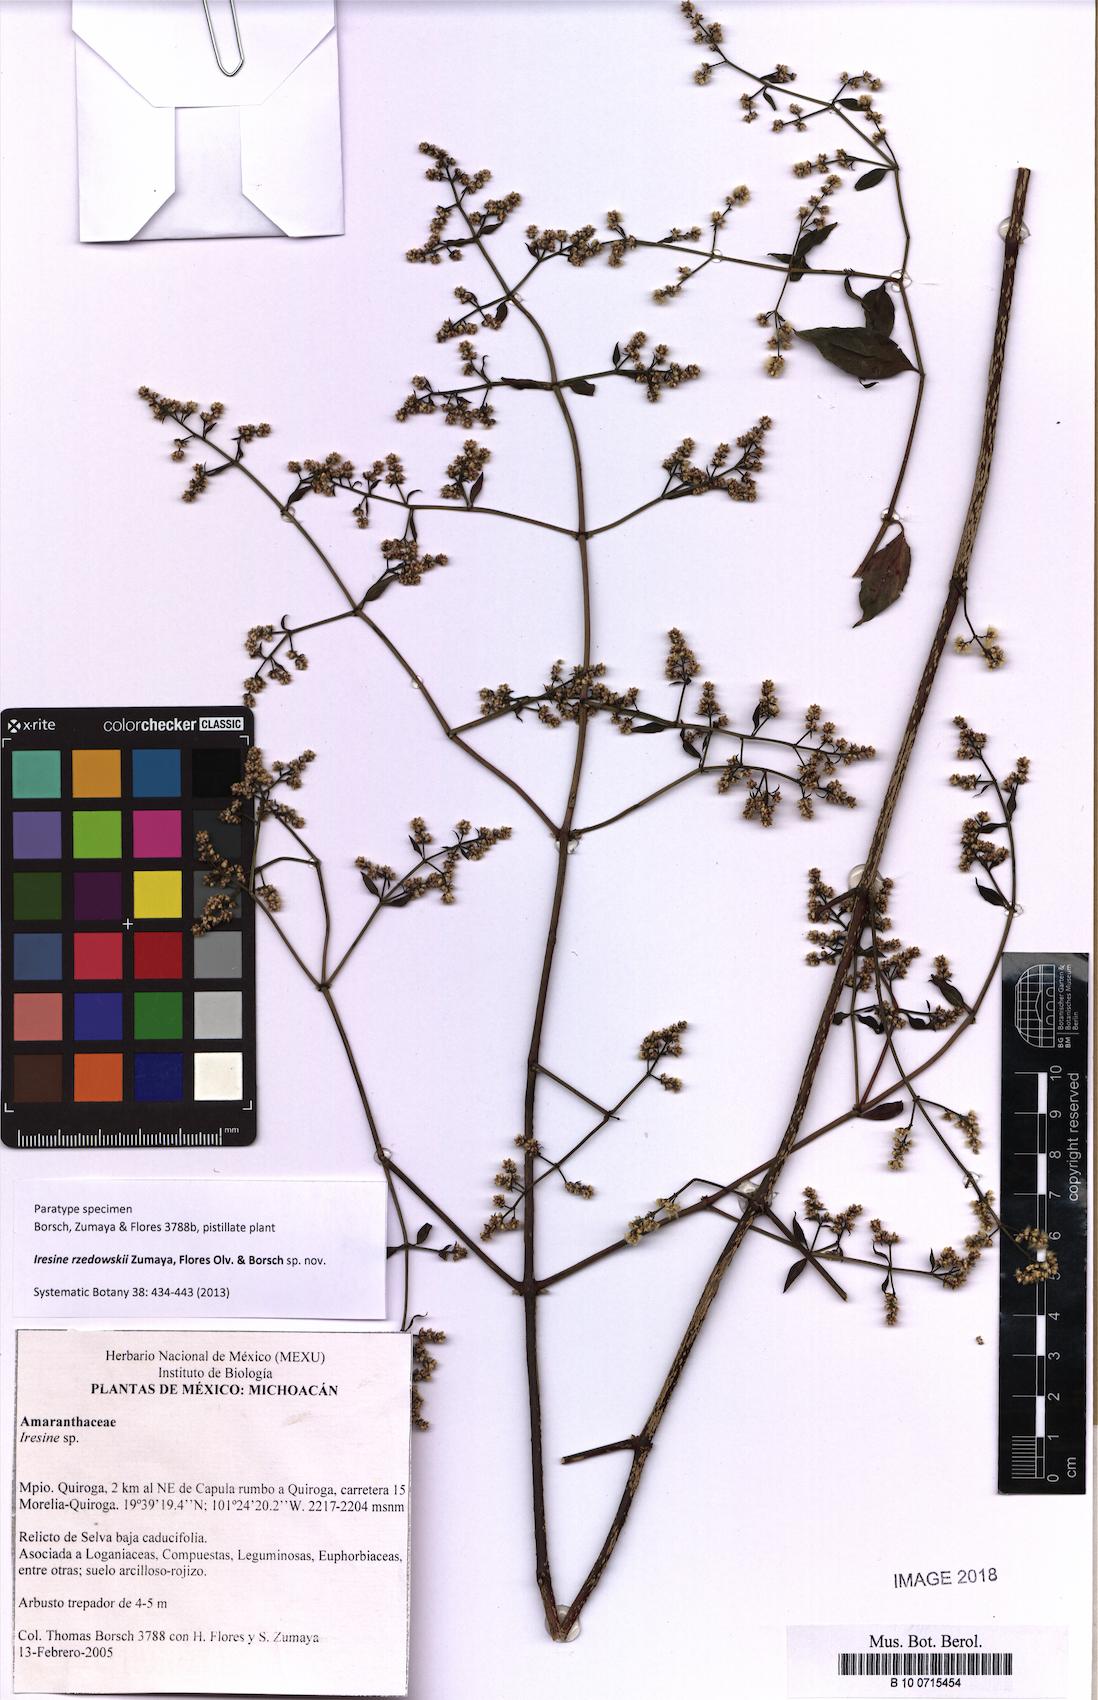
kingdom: Plantae
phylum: Tracheophyta
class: Magnoliopsida
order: Caryophyllales
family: Amaranthaceae
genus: Iresine
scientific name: Iresine rzedowskii
